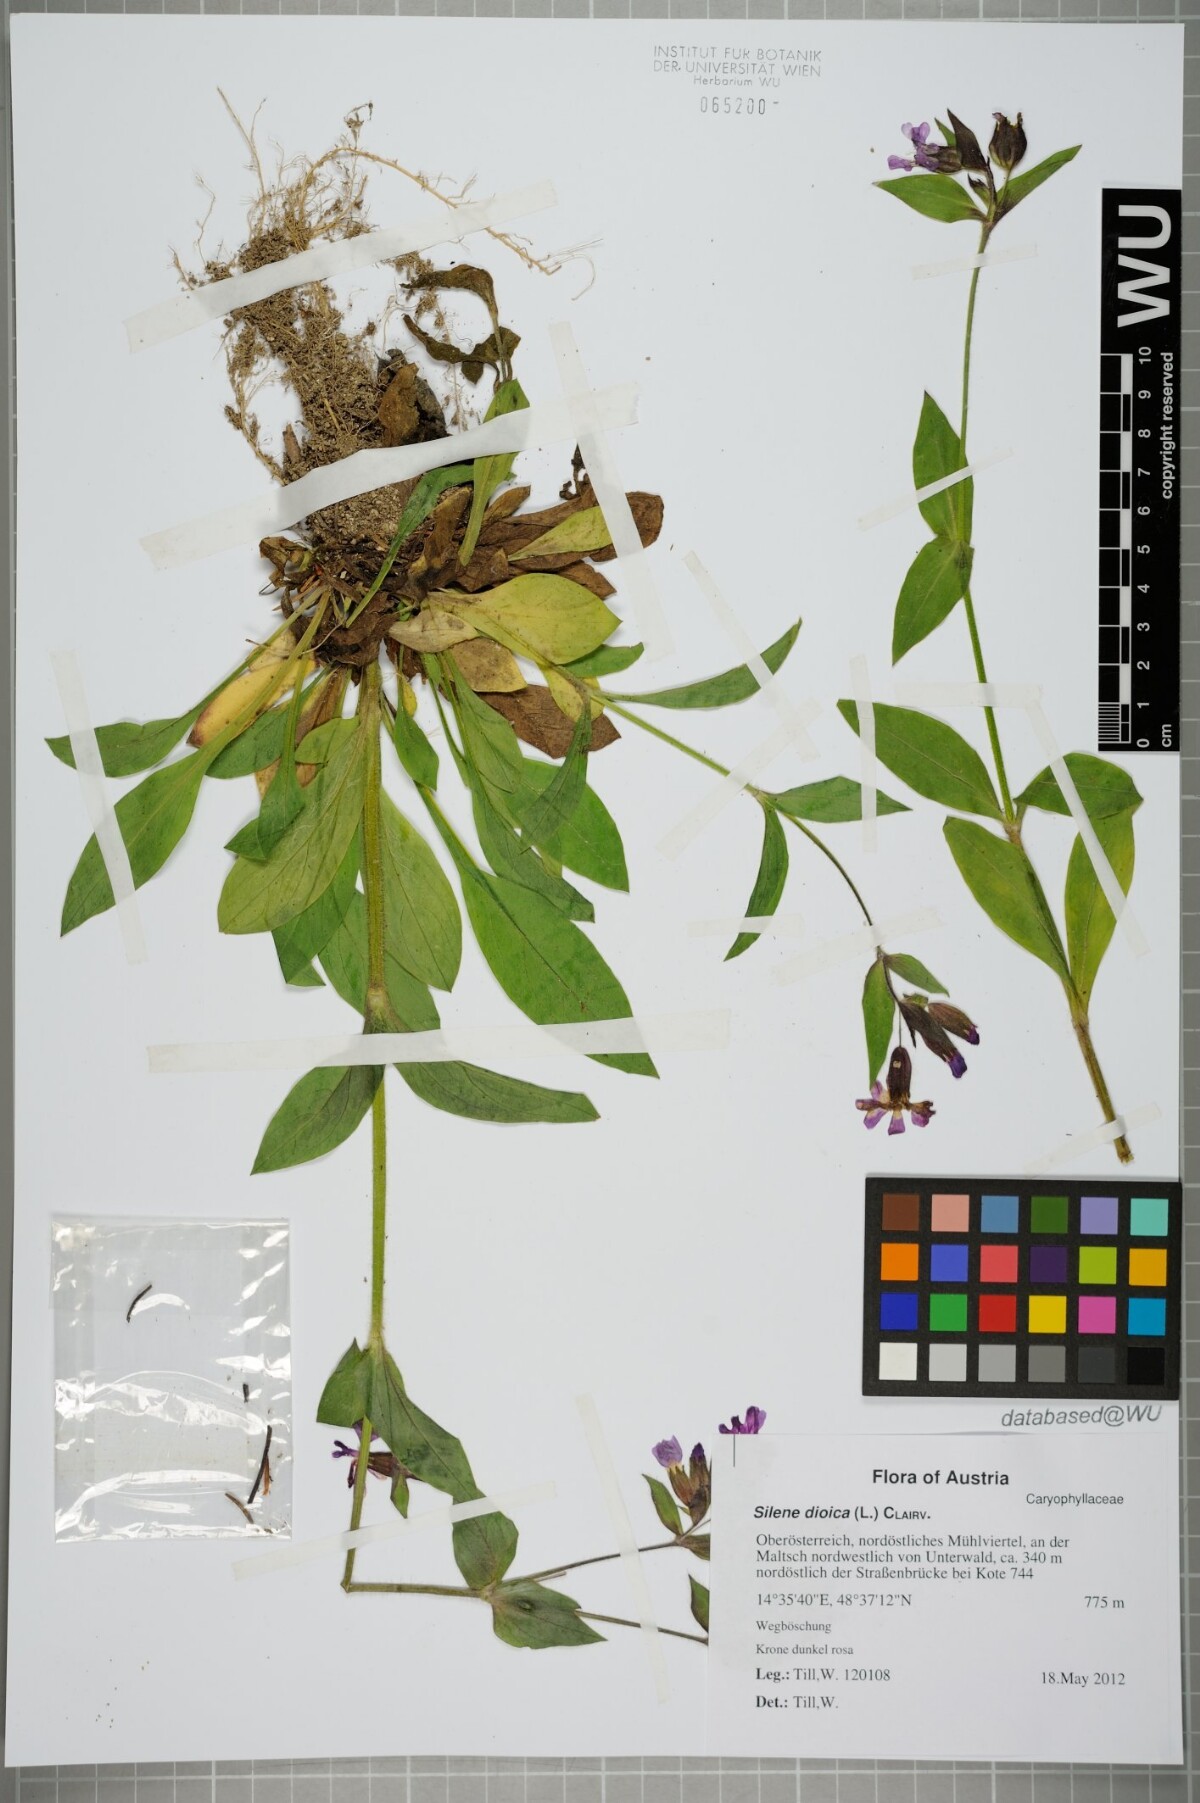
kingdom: Plantae
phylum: Tracheophyta
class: Magnoliopsida
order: Caryophyllales
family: Caryophyllaceae
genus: Silene
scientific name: Silene dioica
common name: Red campion
